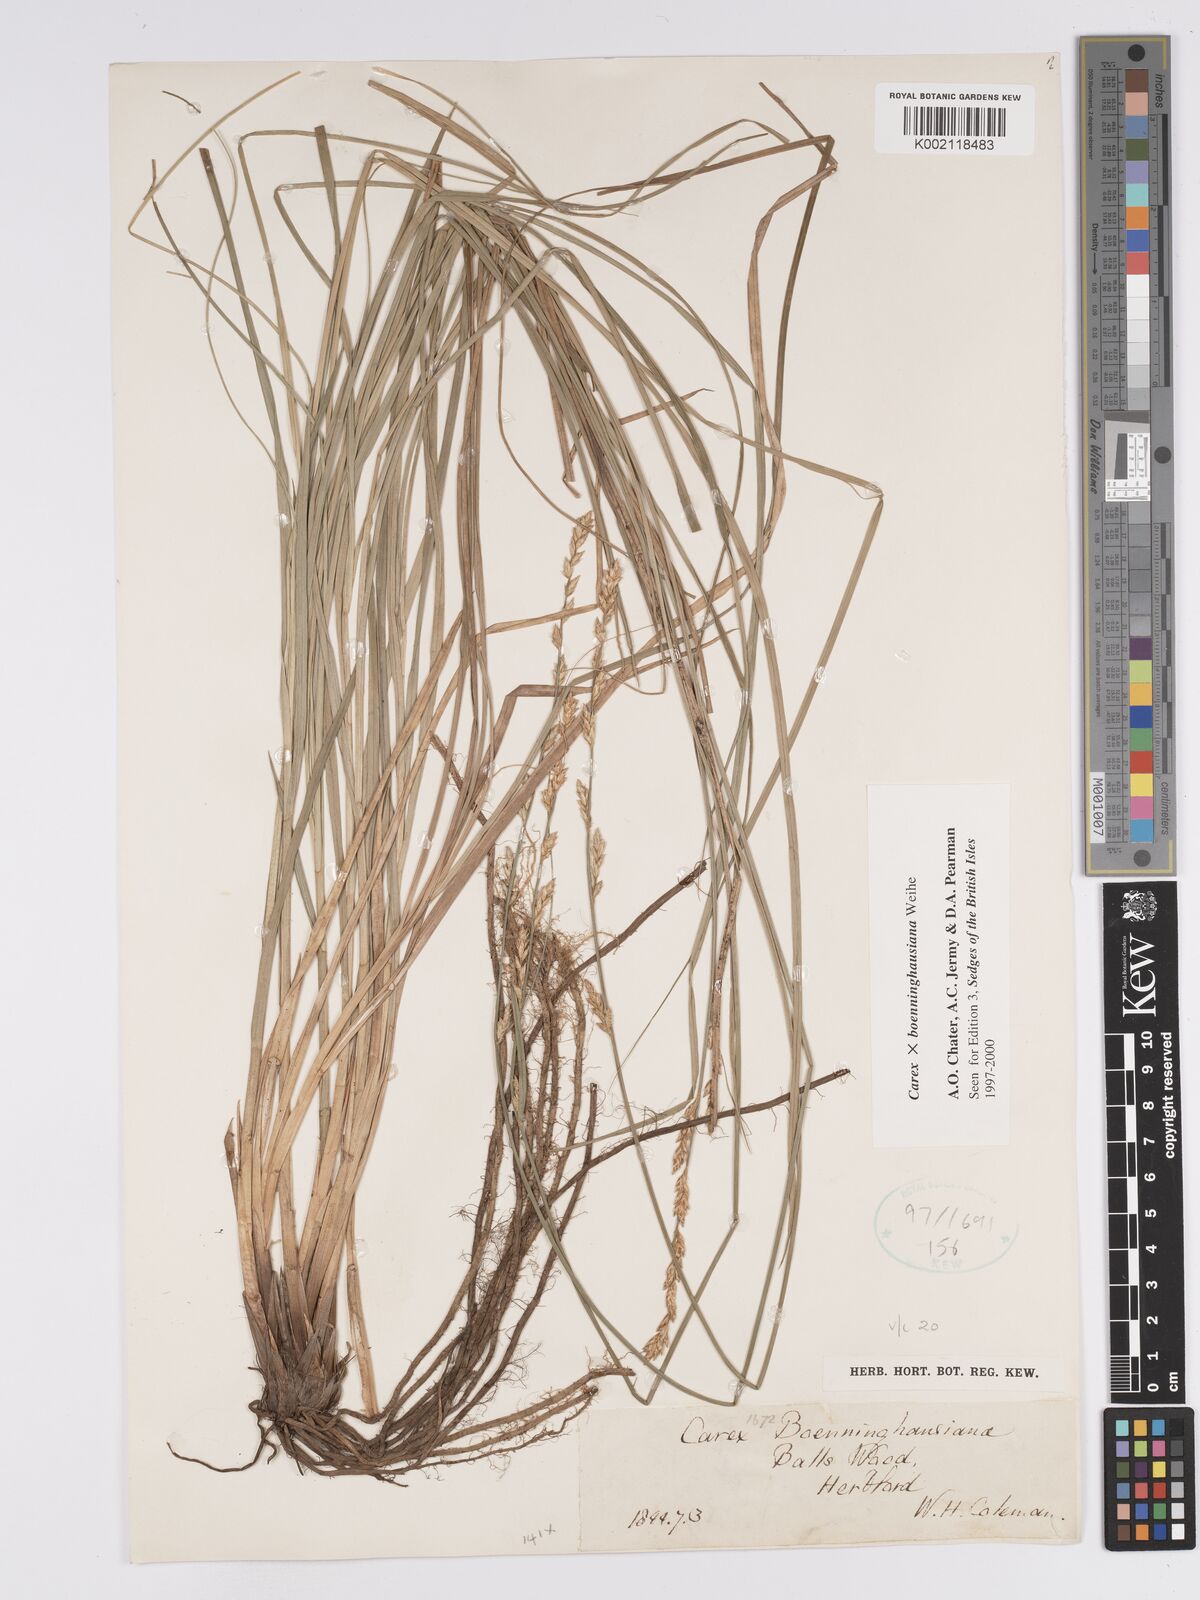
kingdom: Plantae
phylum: Tracheophyta
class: Liliopsida
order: Poales
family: Cyperaceae
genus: Carex
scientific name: Carex boenninghausiana
